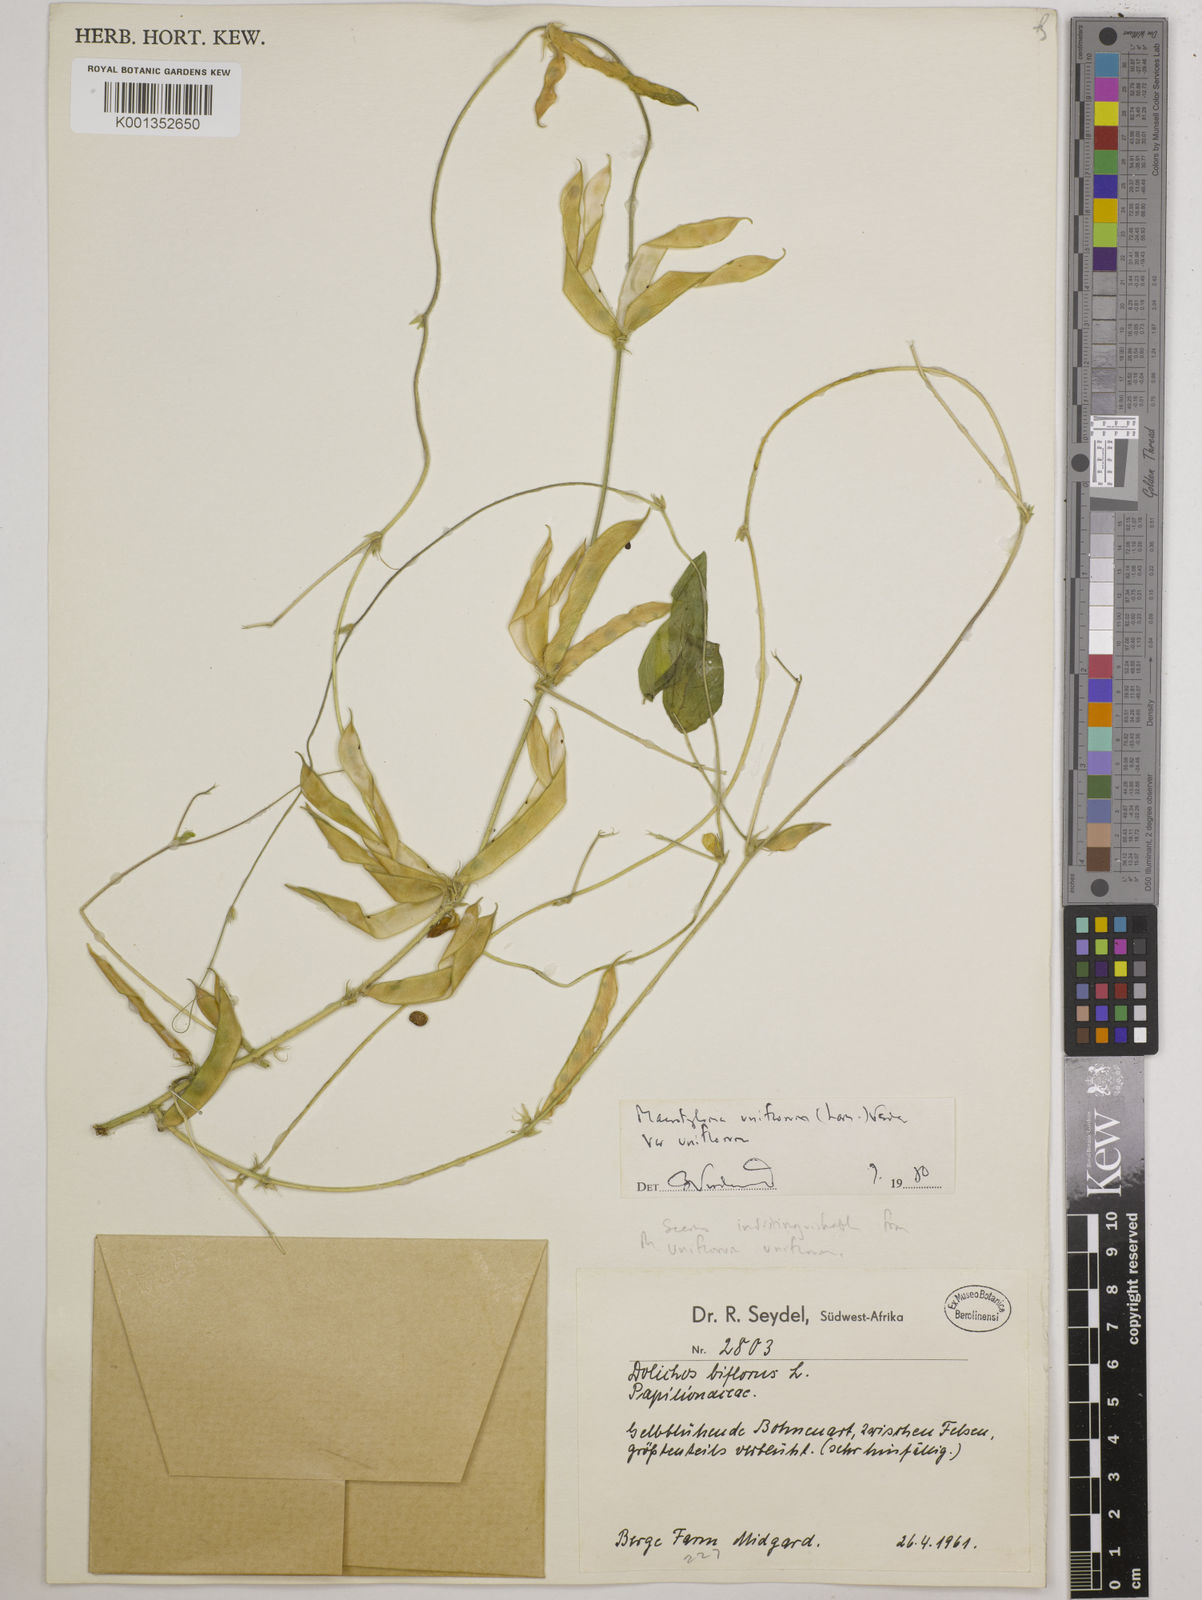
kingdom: Plantae
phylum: Tracheophyta
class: Magnoliopsida
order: Fabales
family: Fabaceae
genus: Macrotyloma
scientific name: Macrotyloma uniflorum
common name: Horse gram
